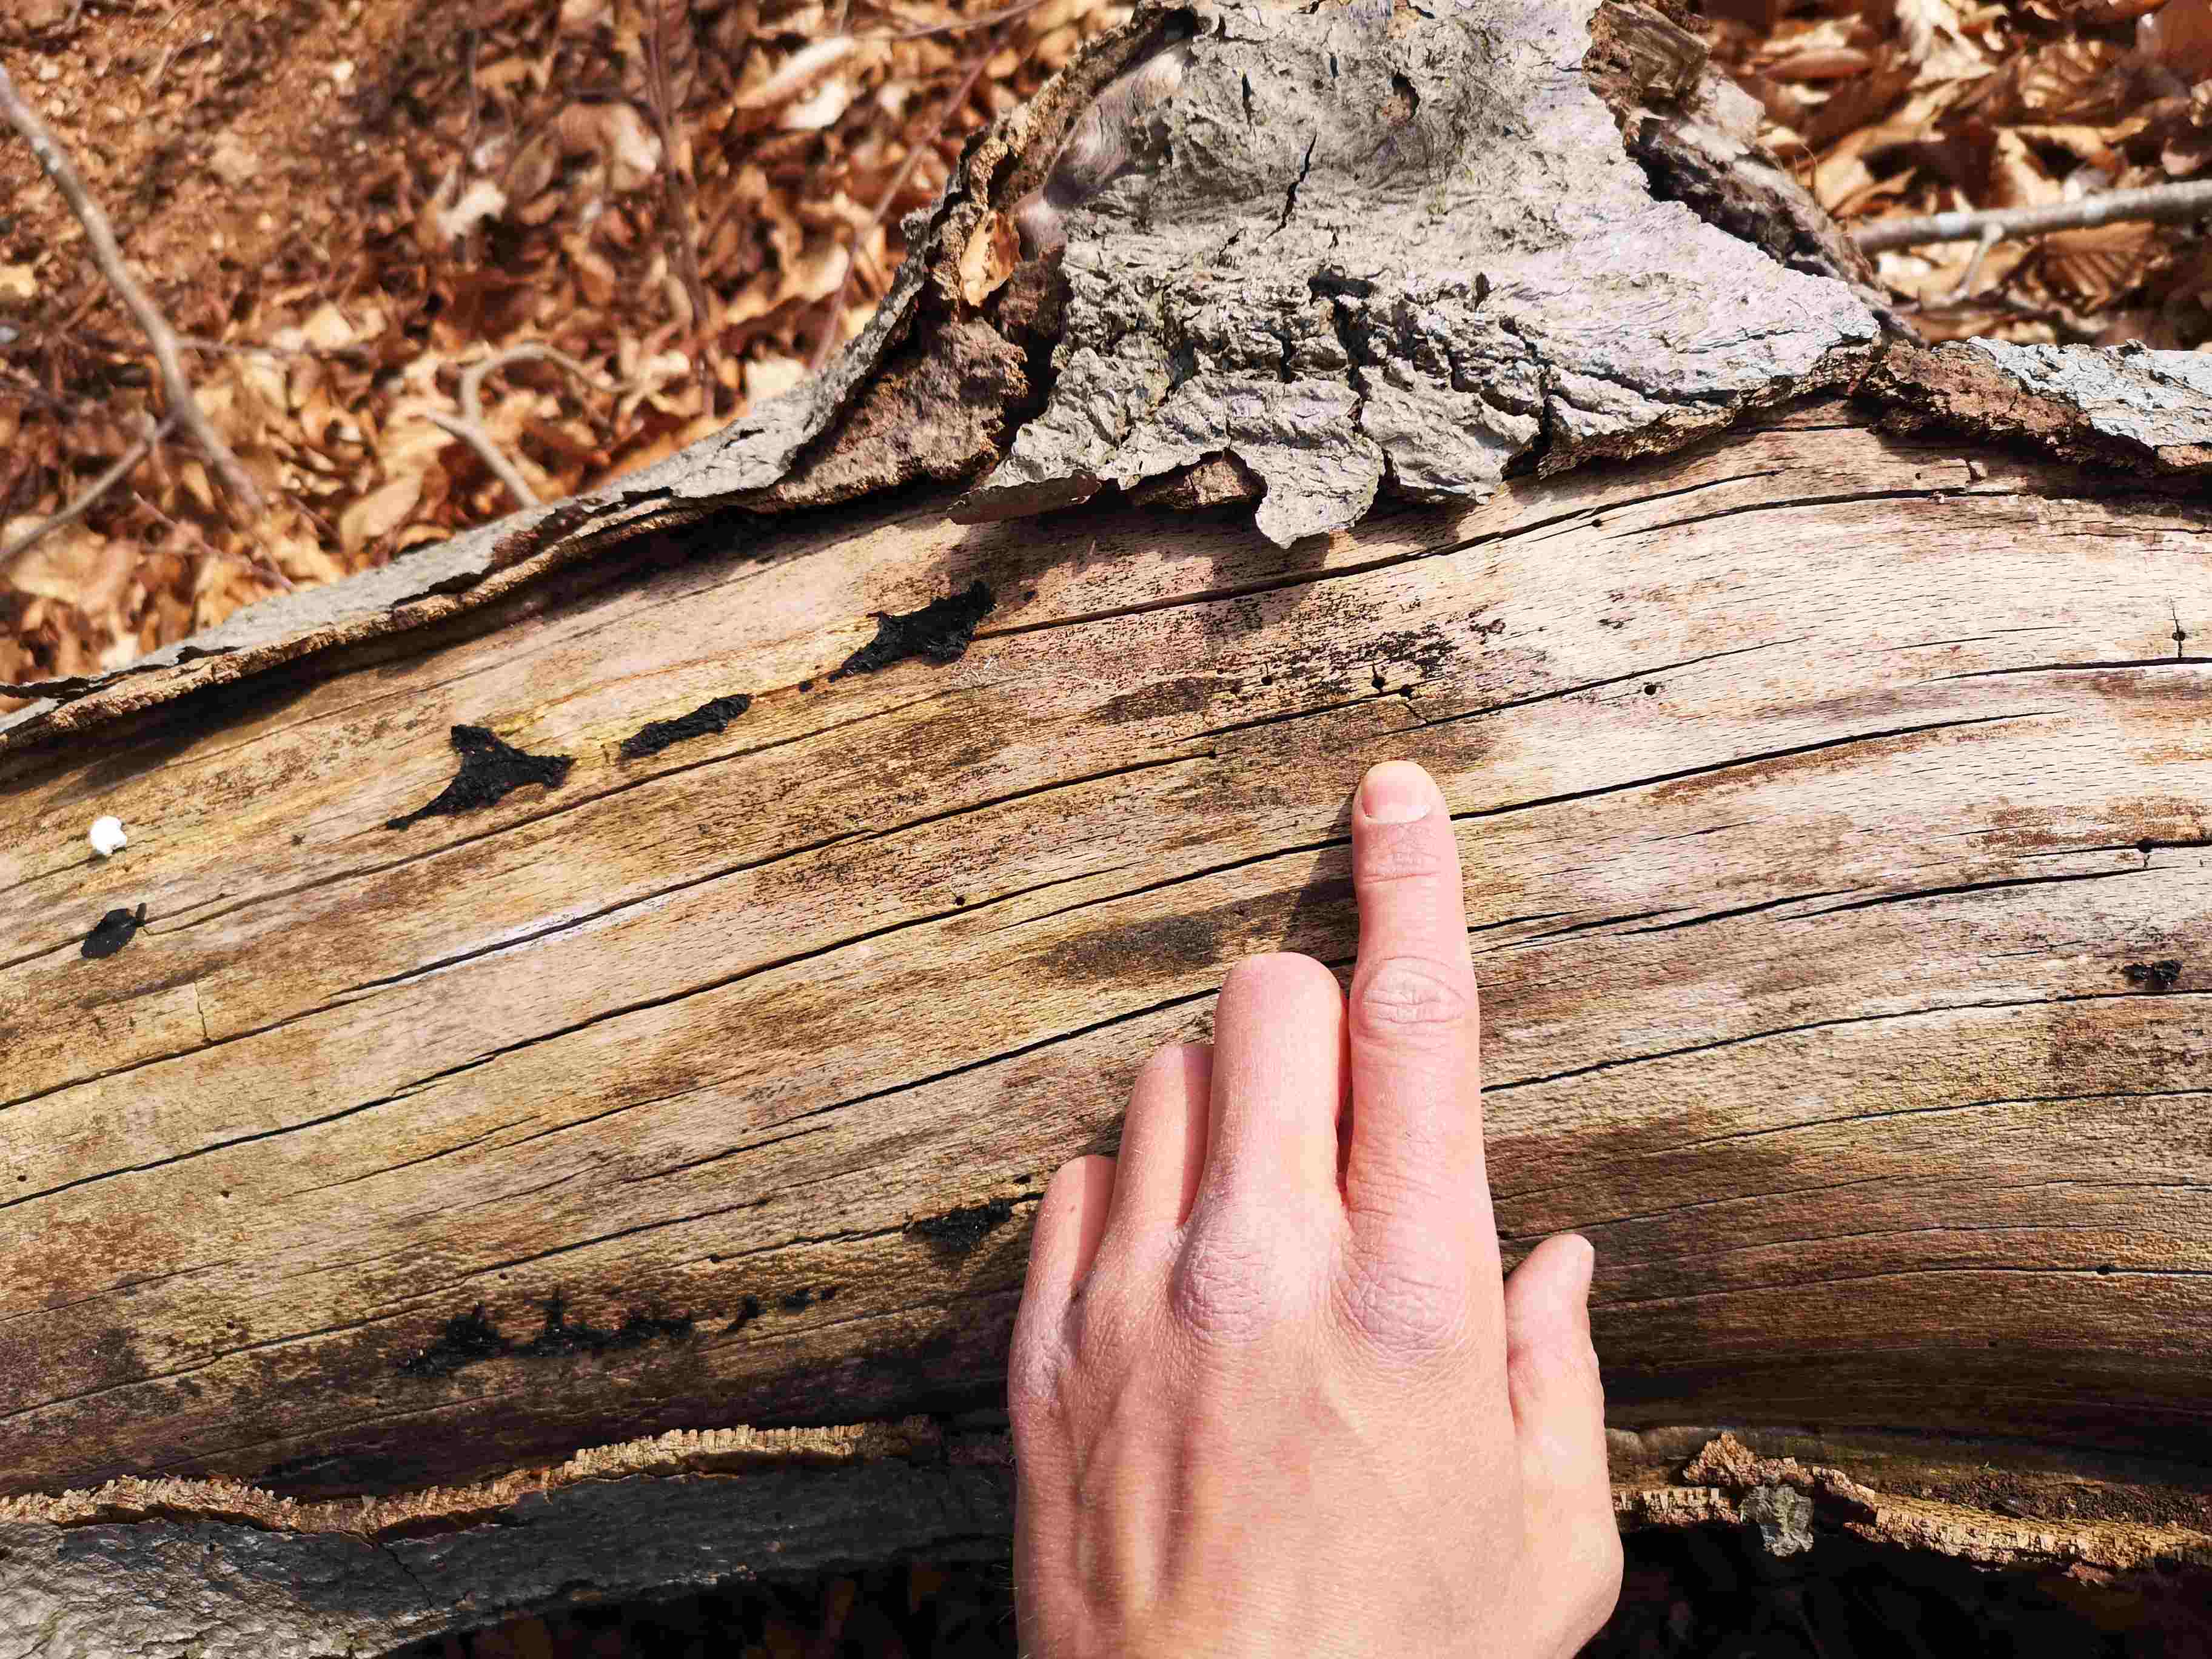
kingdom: Fungi
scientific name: Fungi
